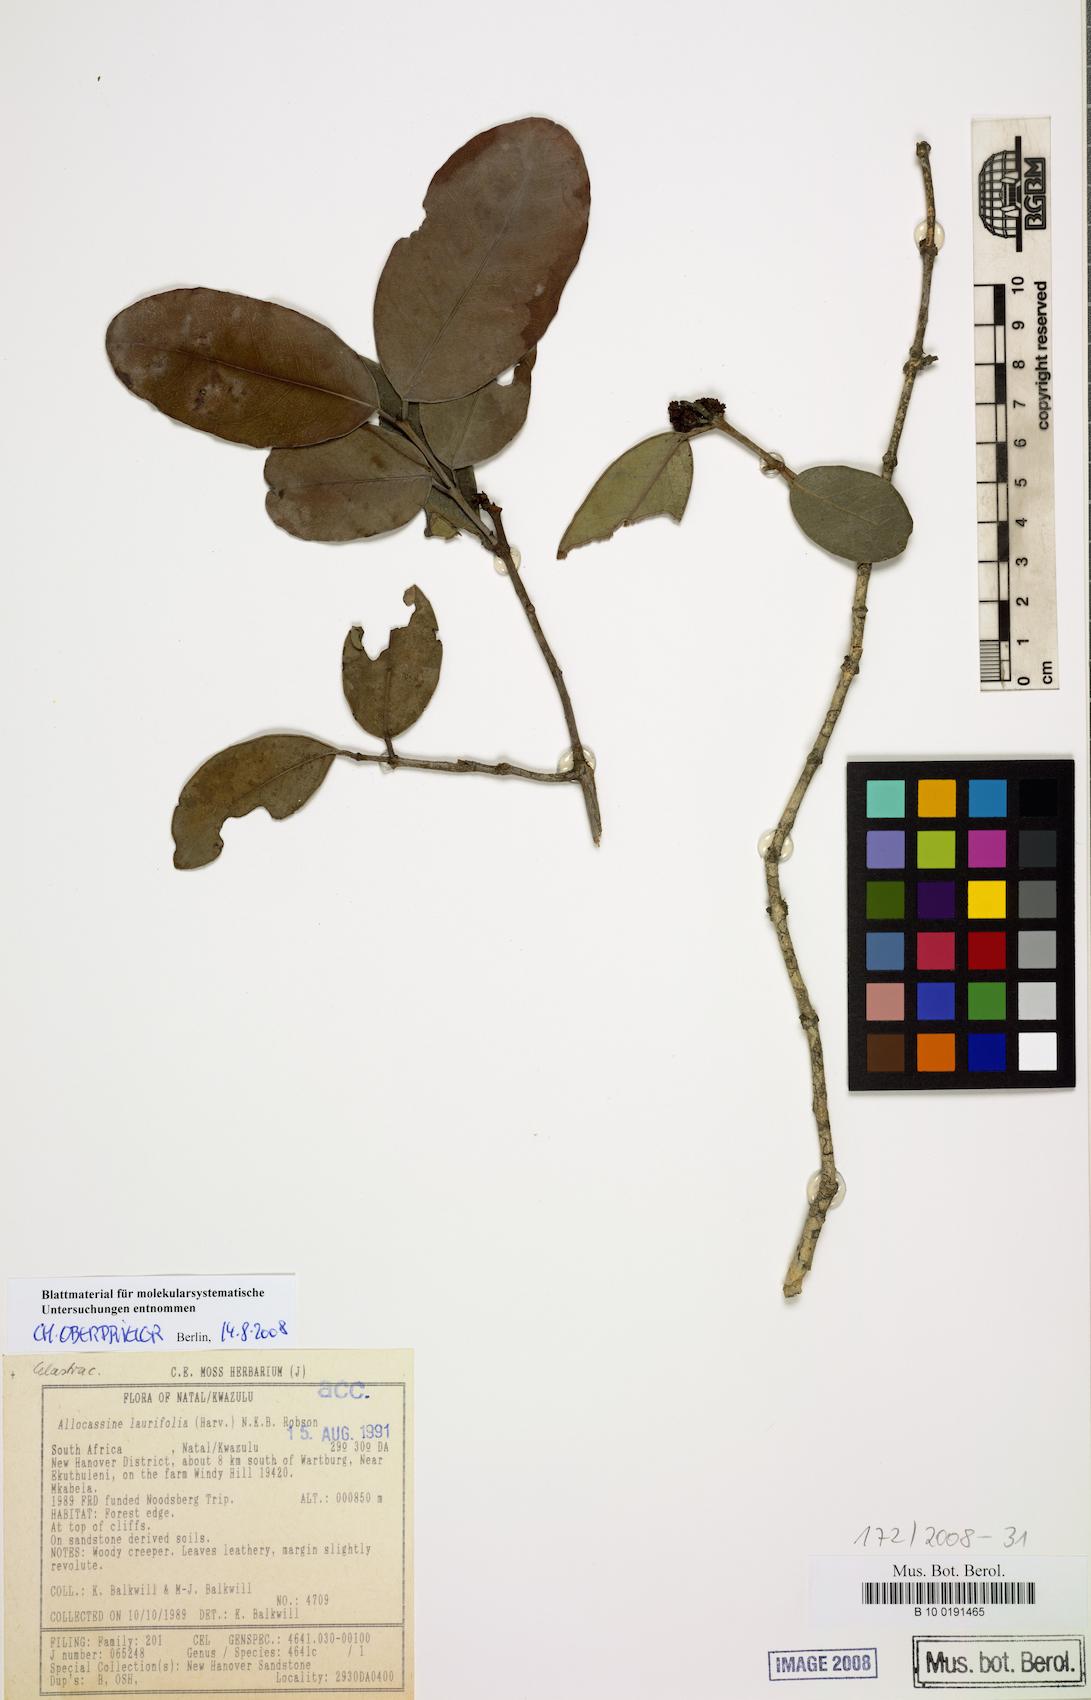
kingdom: Plantae
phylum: Tracheophyta
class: Magnoliopsida
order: Celastrales
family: Celastraceae
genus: Allocassine
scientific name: Allocassine laurifolia
